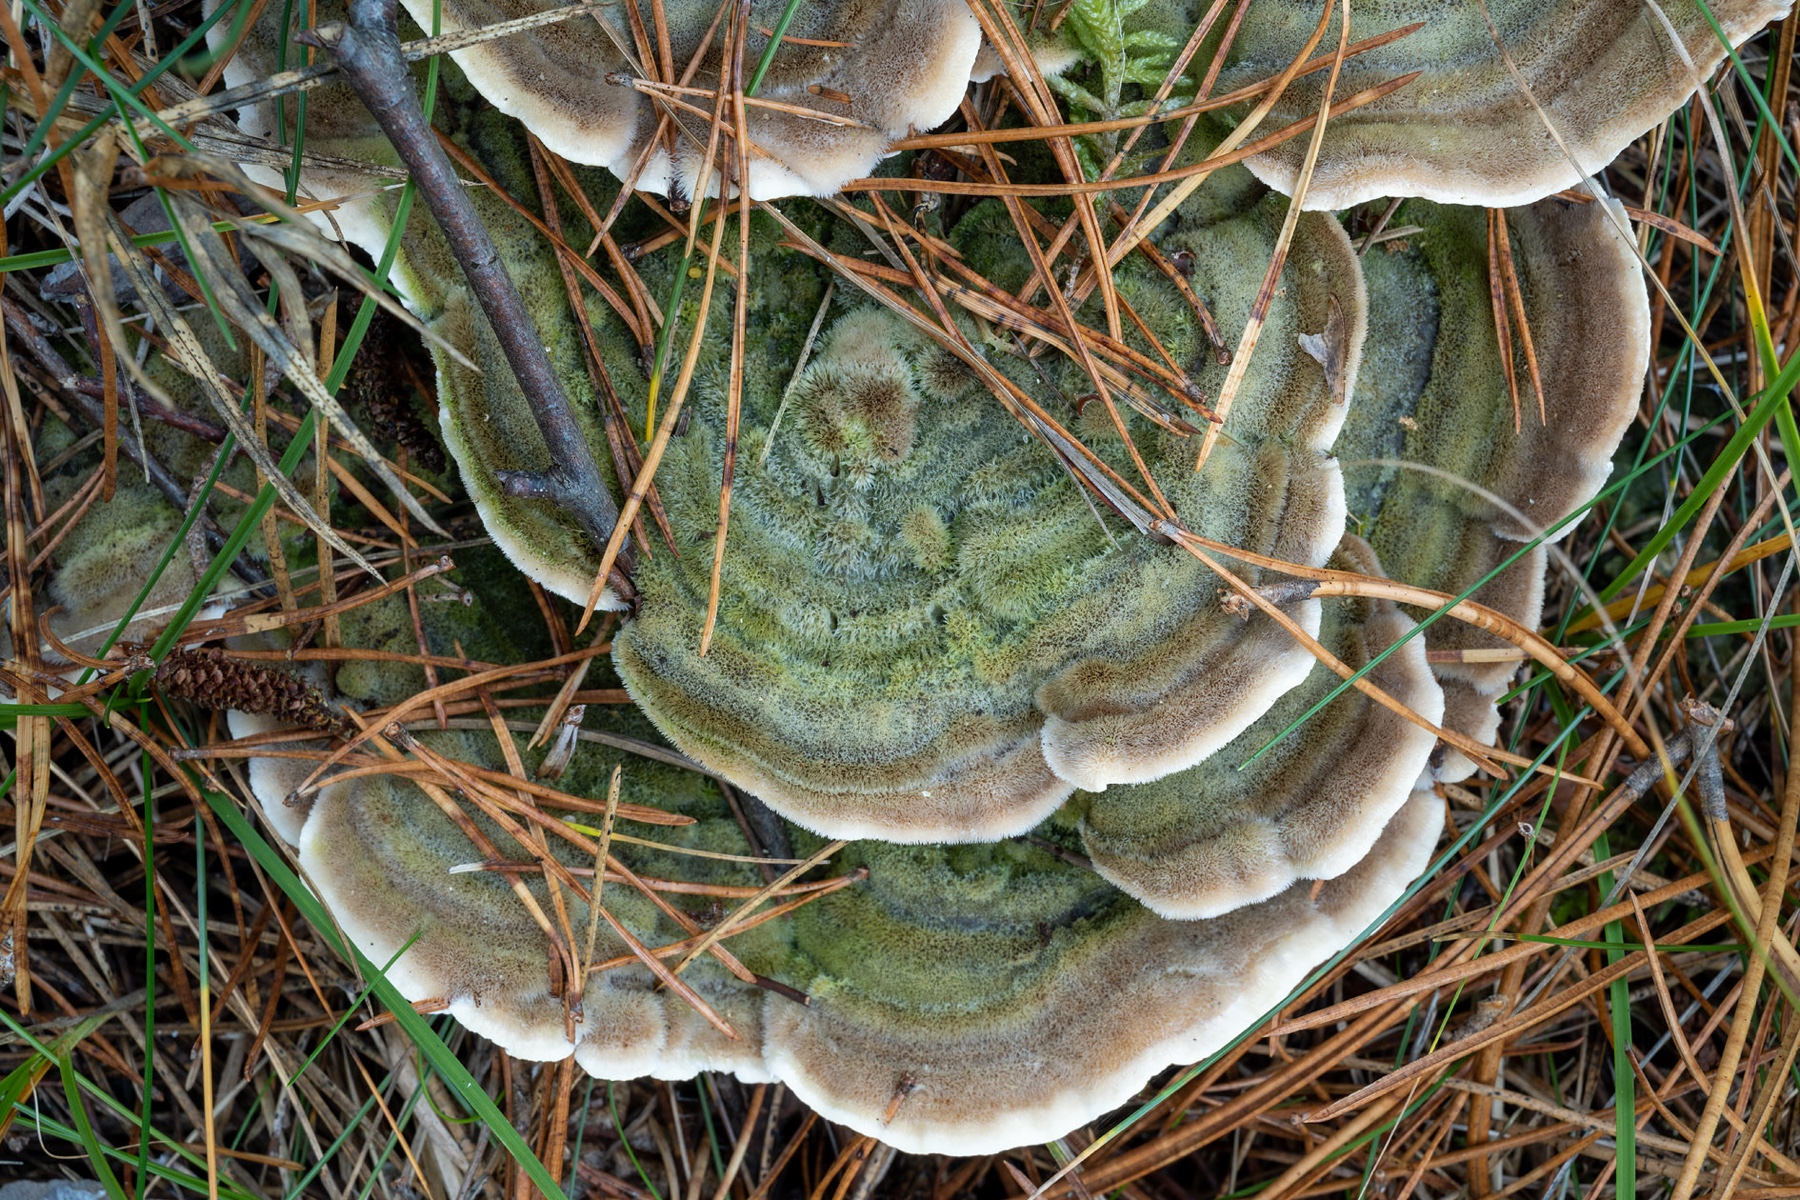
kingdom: Fungi
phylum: Basidiomycota
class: Agaricomycetes
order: Polyporales
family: Cerrenaceae
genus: Cerrena
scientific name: Cerrena unicolor
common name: ensfarvet læderporesvamp
